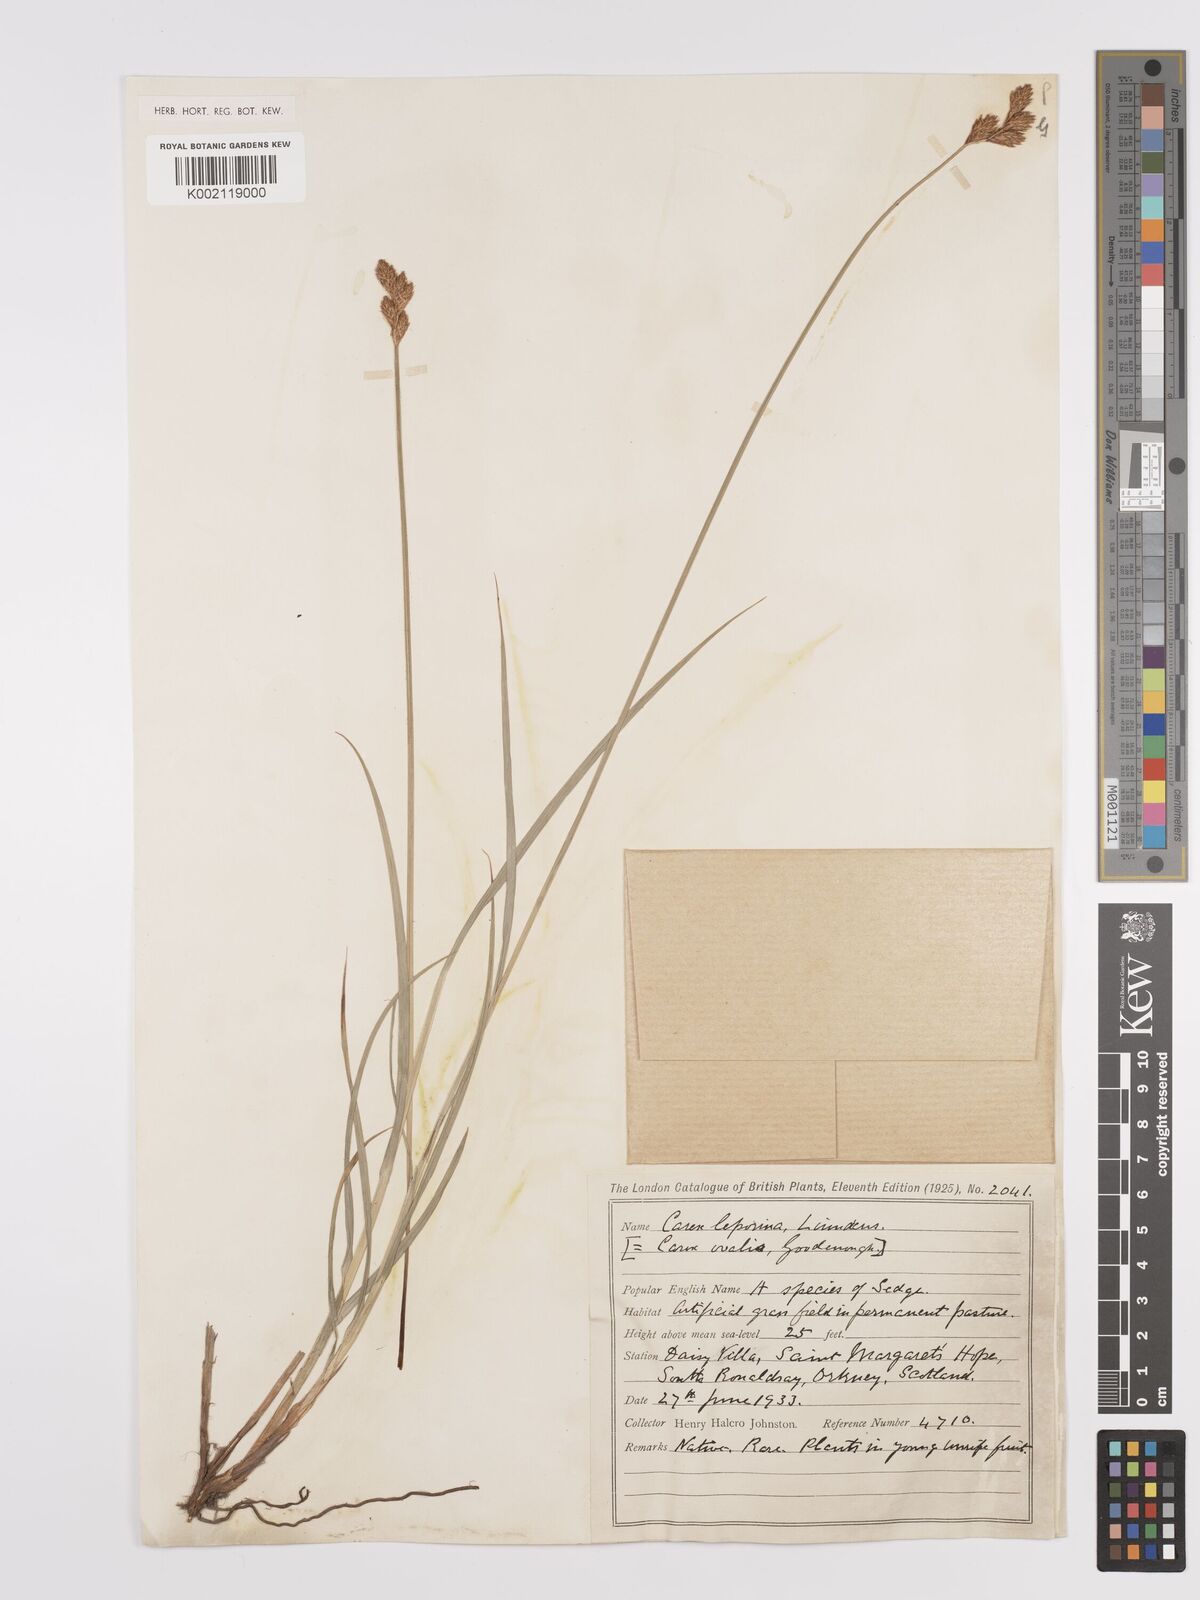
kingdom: Plantae
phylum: Tracheophyta
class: Liliopsida
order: Poales
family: Cyperaceae
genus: Carex
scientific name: Carex leporina
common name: Oval sedge
